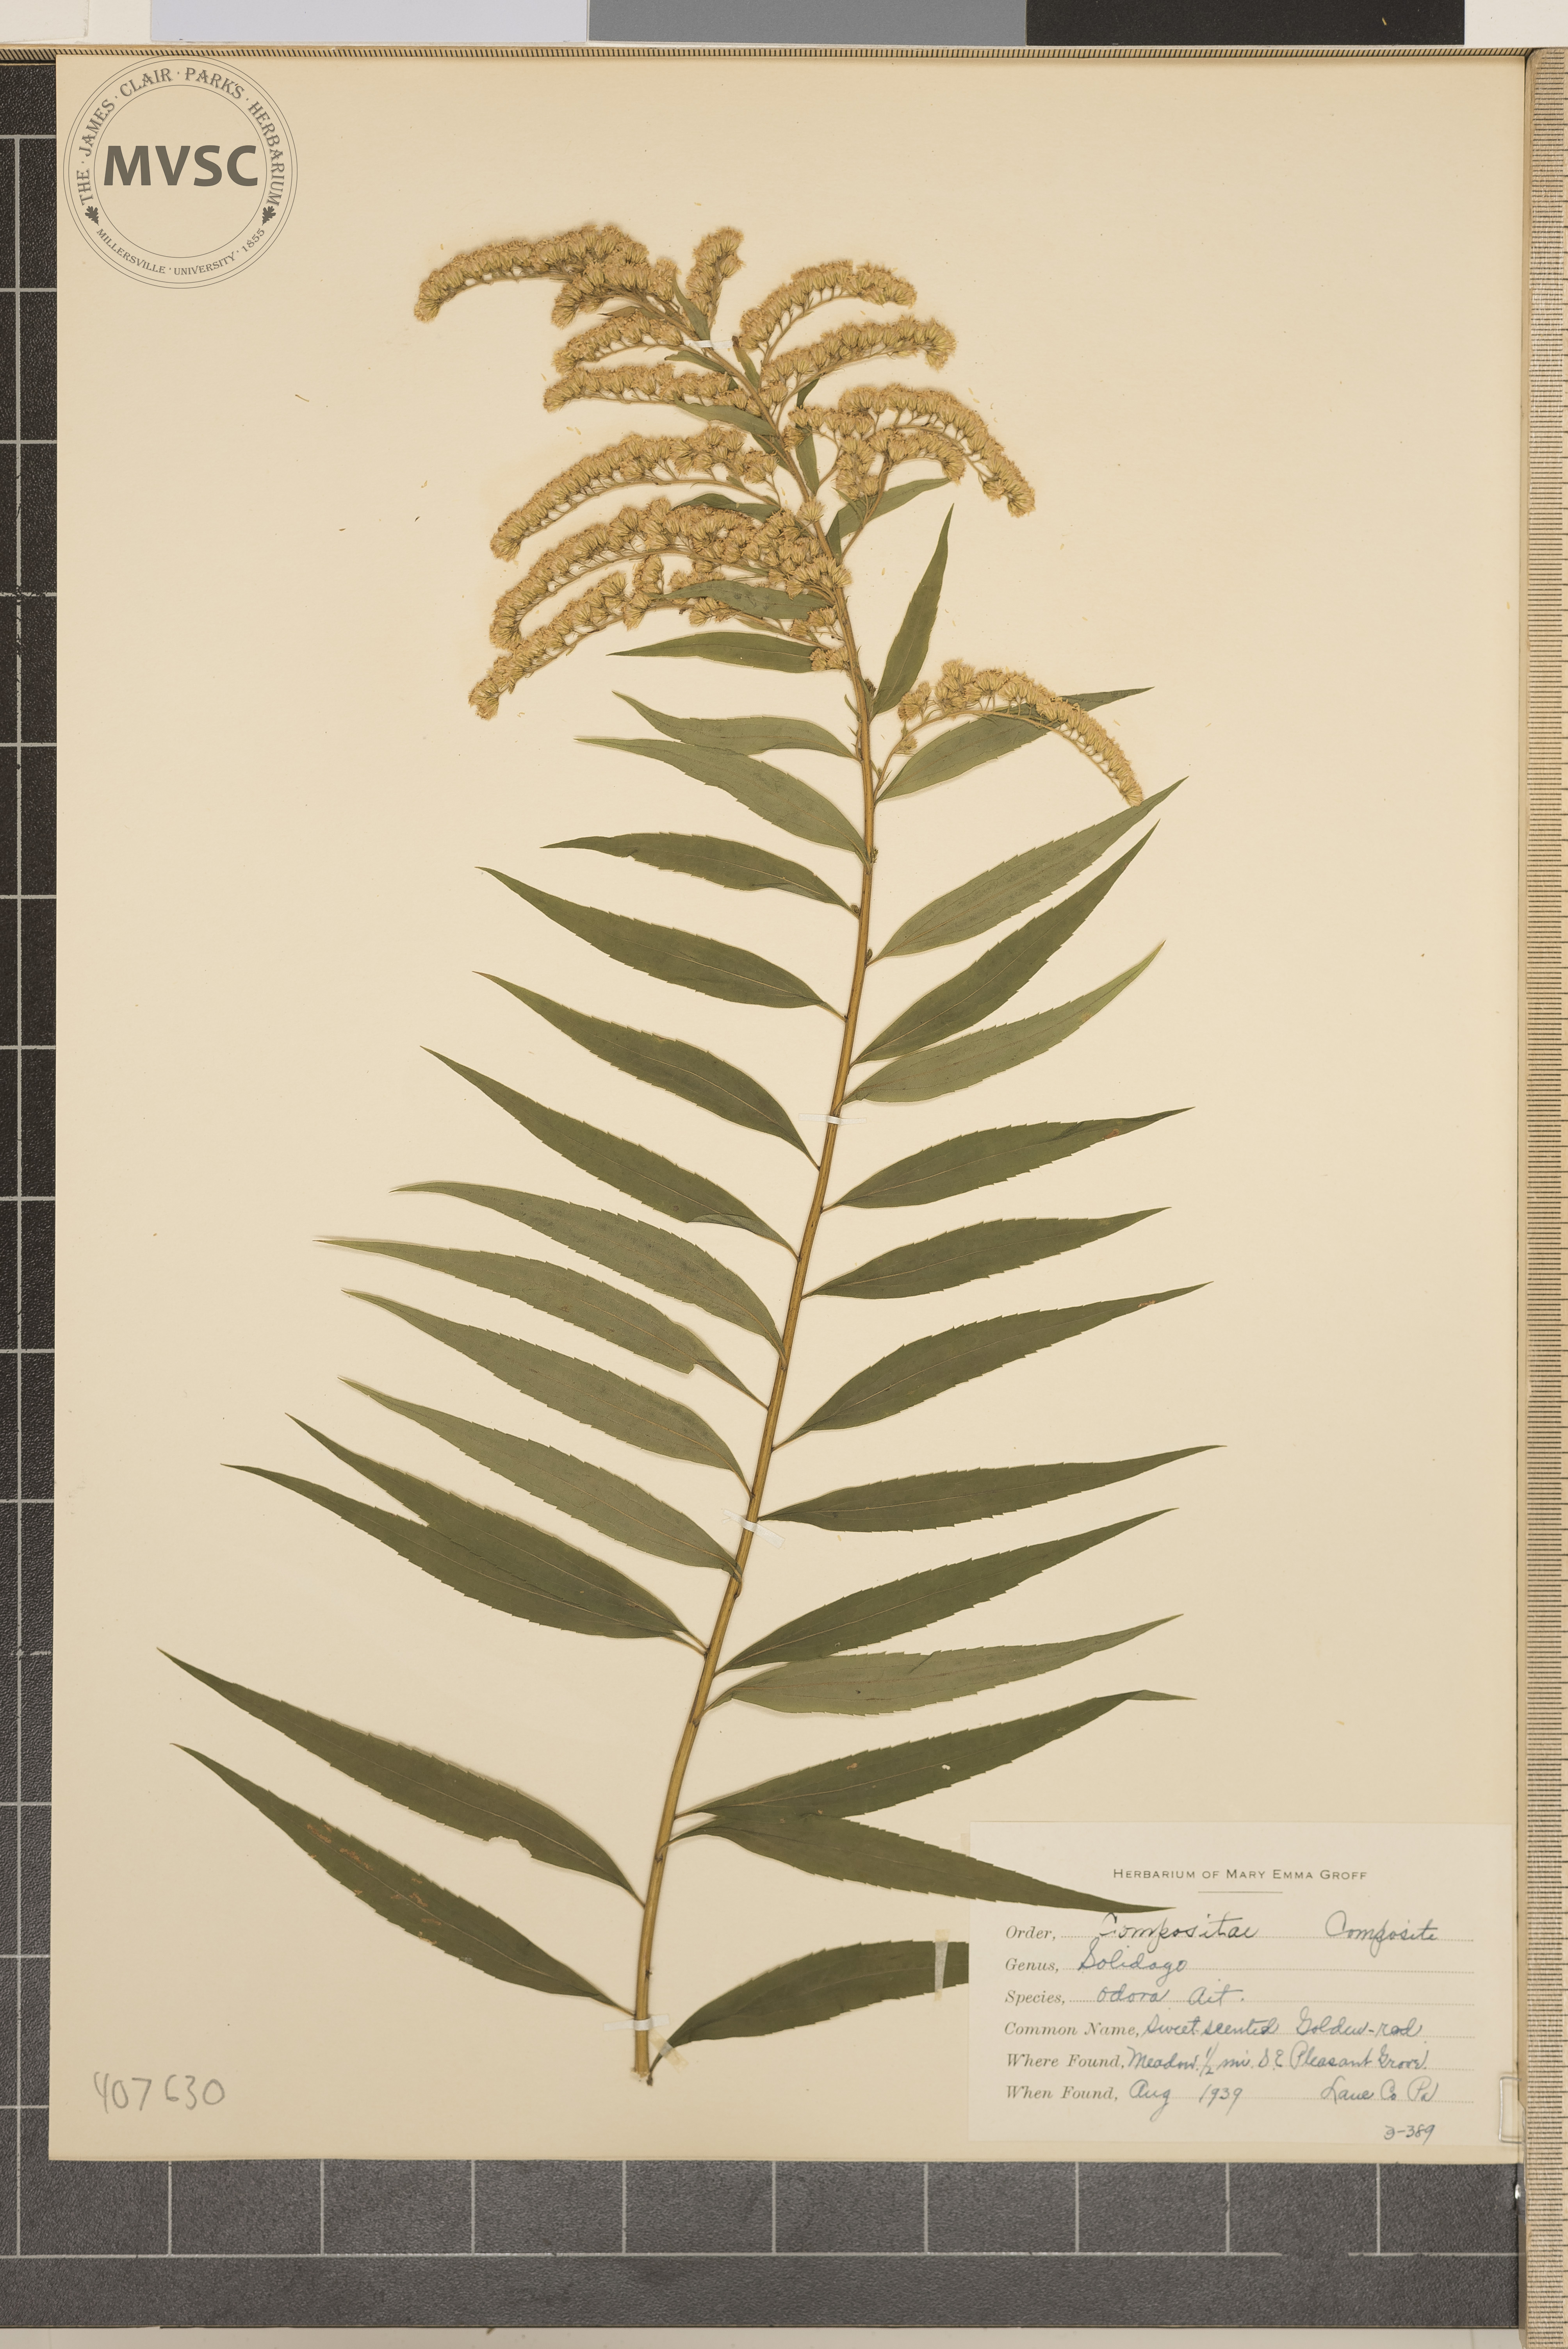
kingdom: Plantae
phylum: Tracheophyta
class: Magnoliopsida
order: Asterales
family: Asteraceae
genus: Solidago
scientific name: Solidago odora
